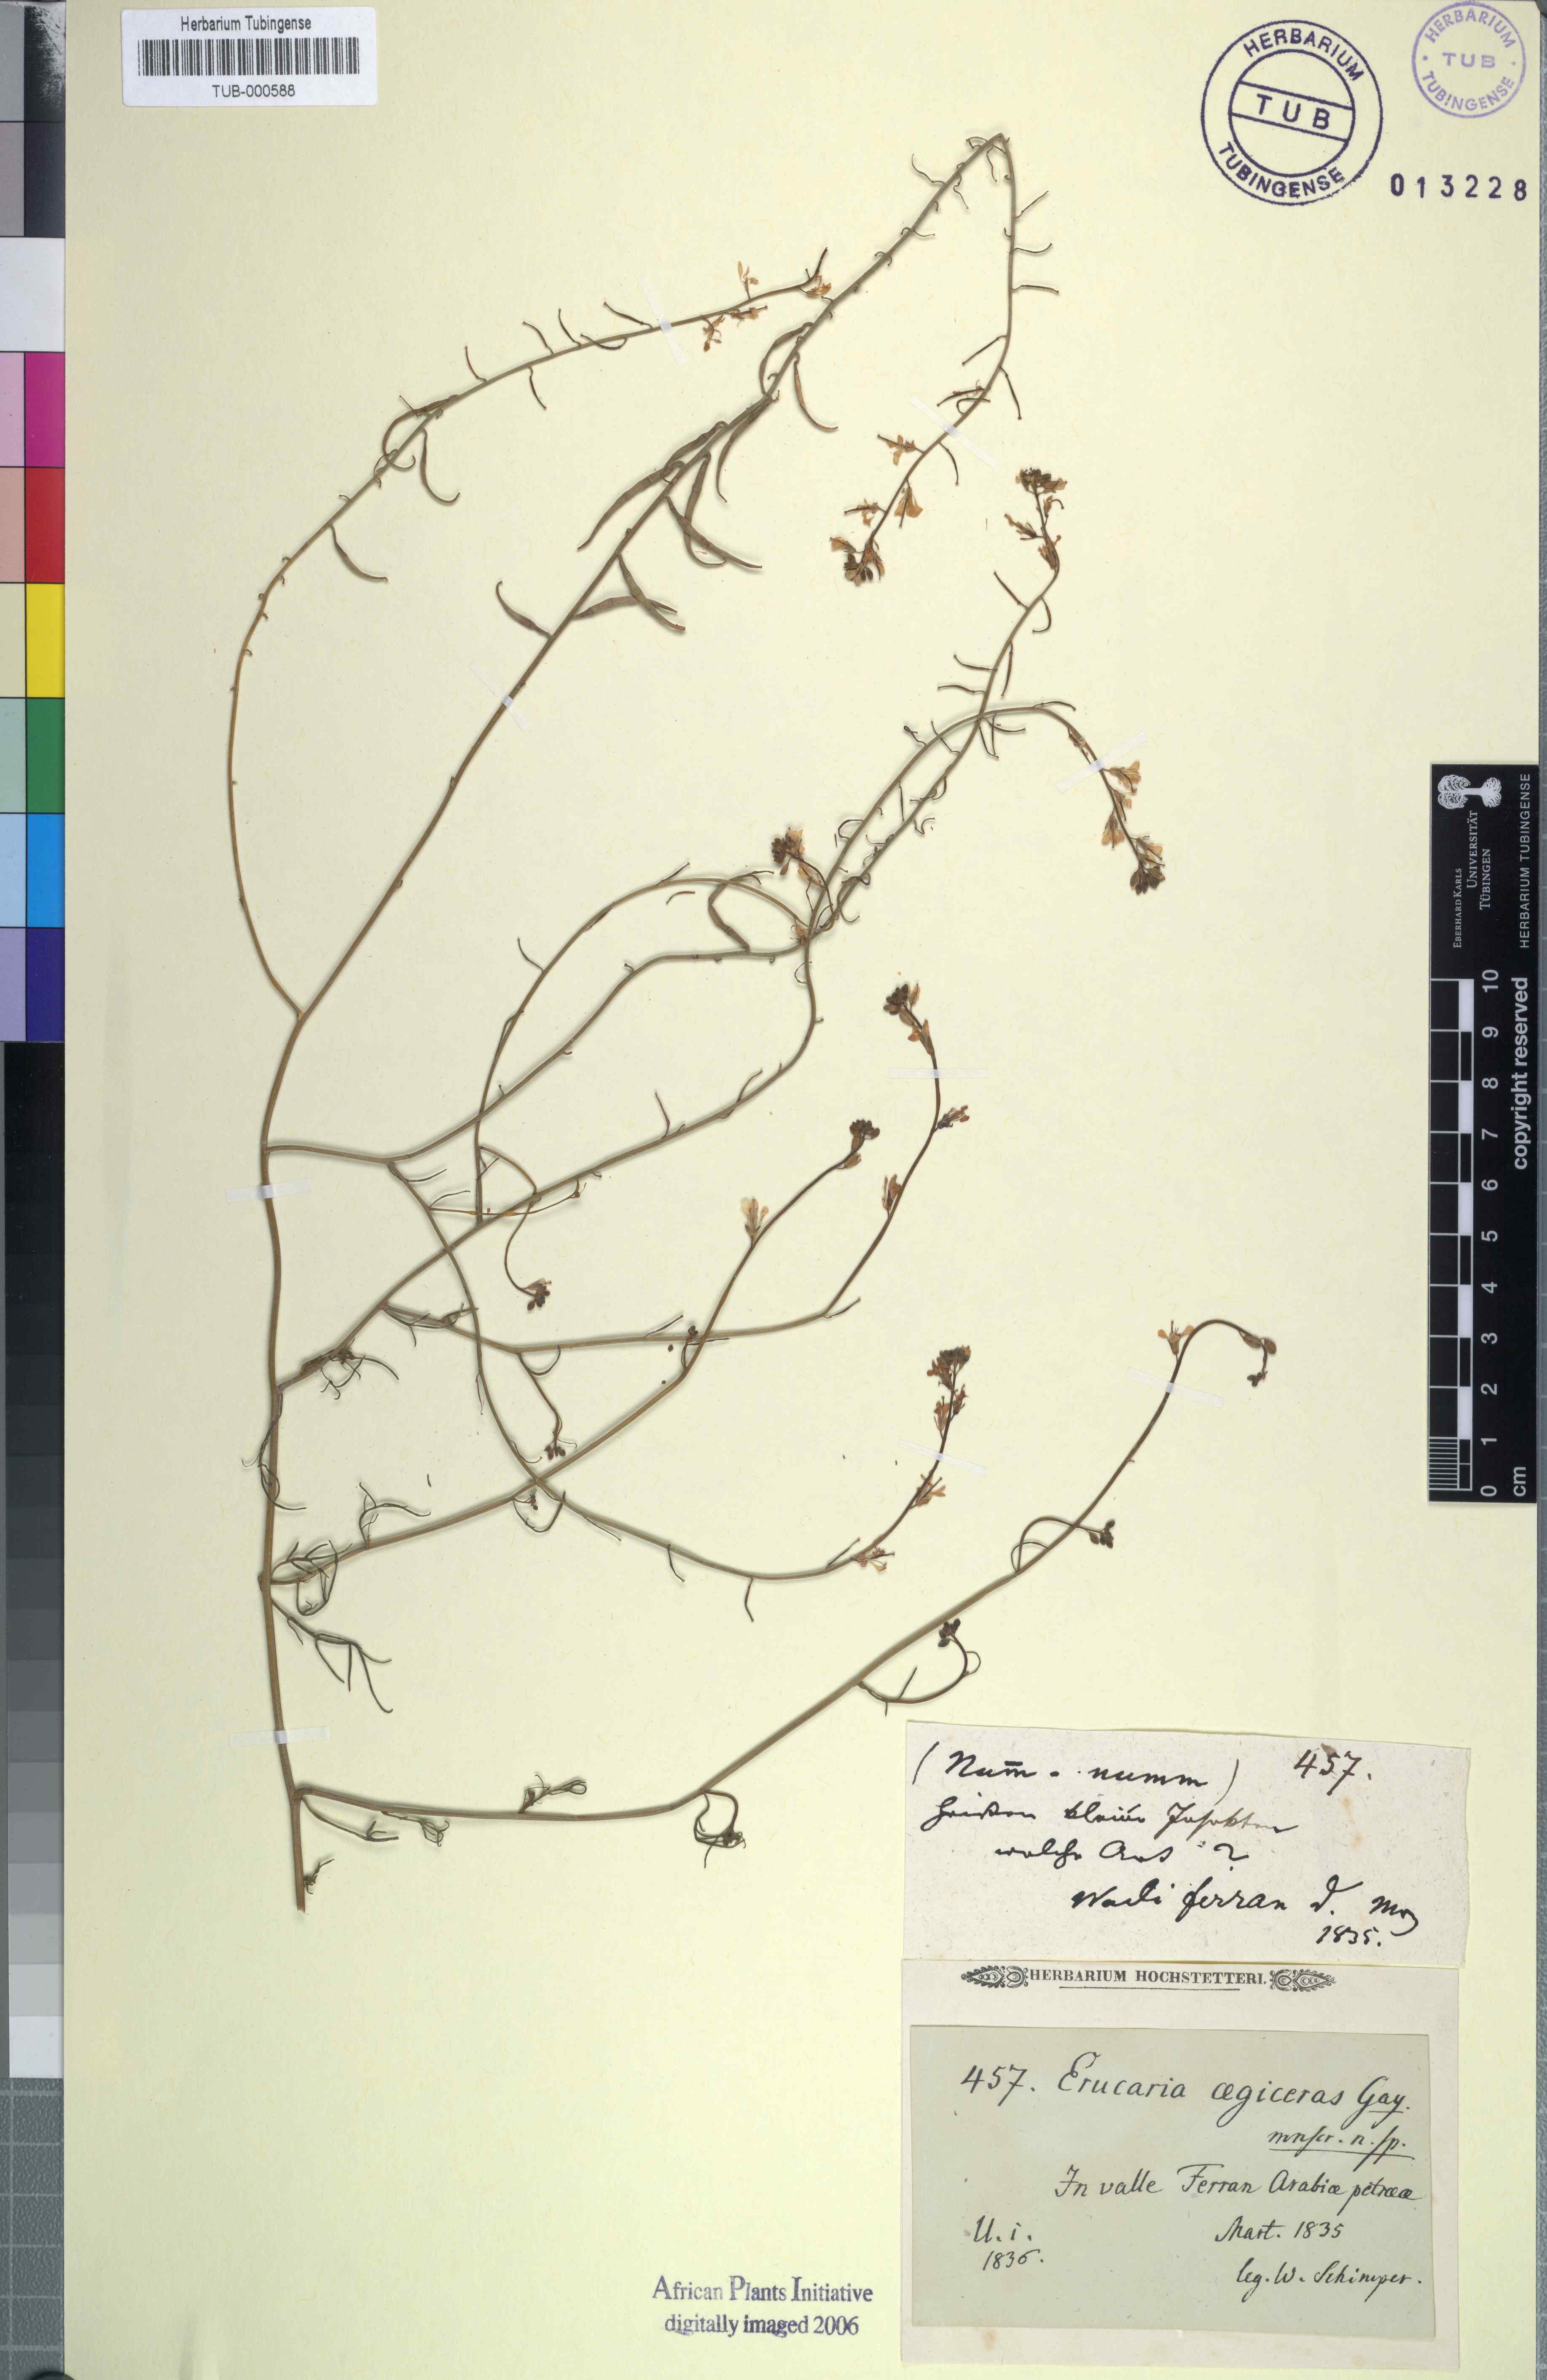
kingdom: Plantae
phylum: Tracheophyta
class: Magnoliopsida
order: Brassicales
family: Brassicaceae
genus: Erucaria
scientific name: Erucaria uncata
